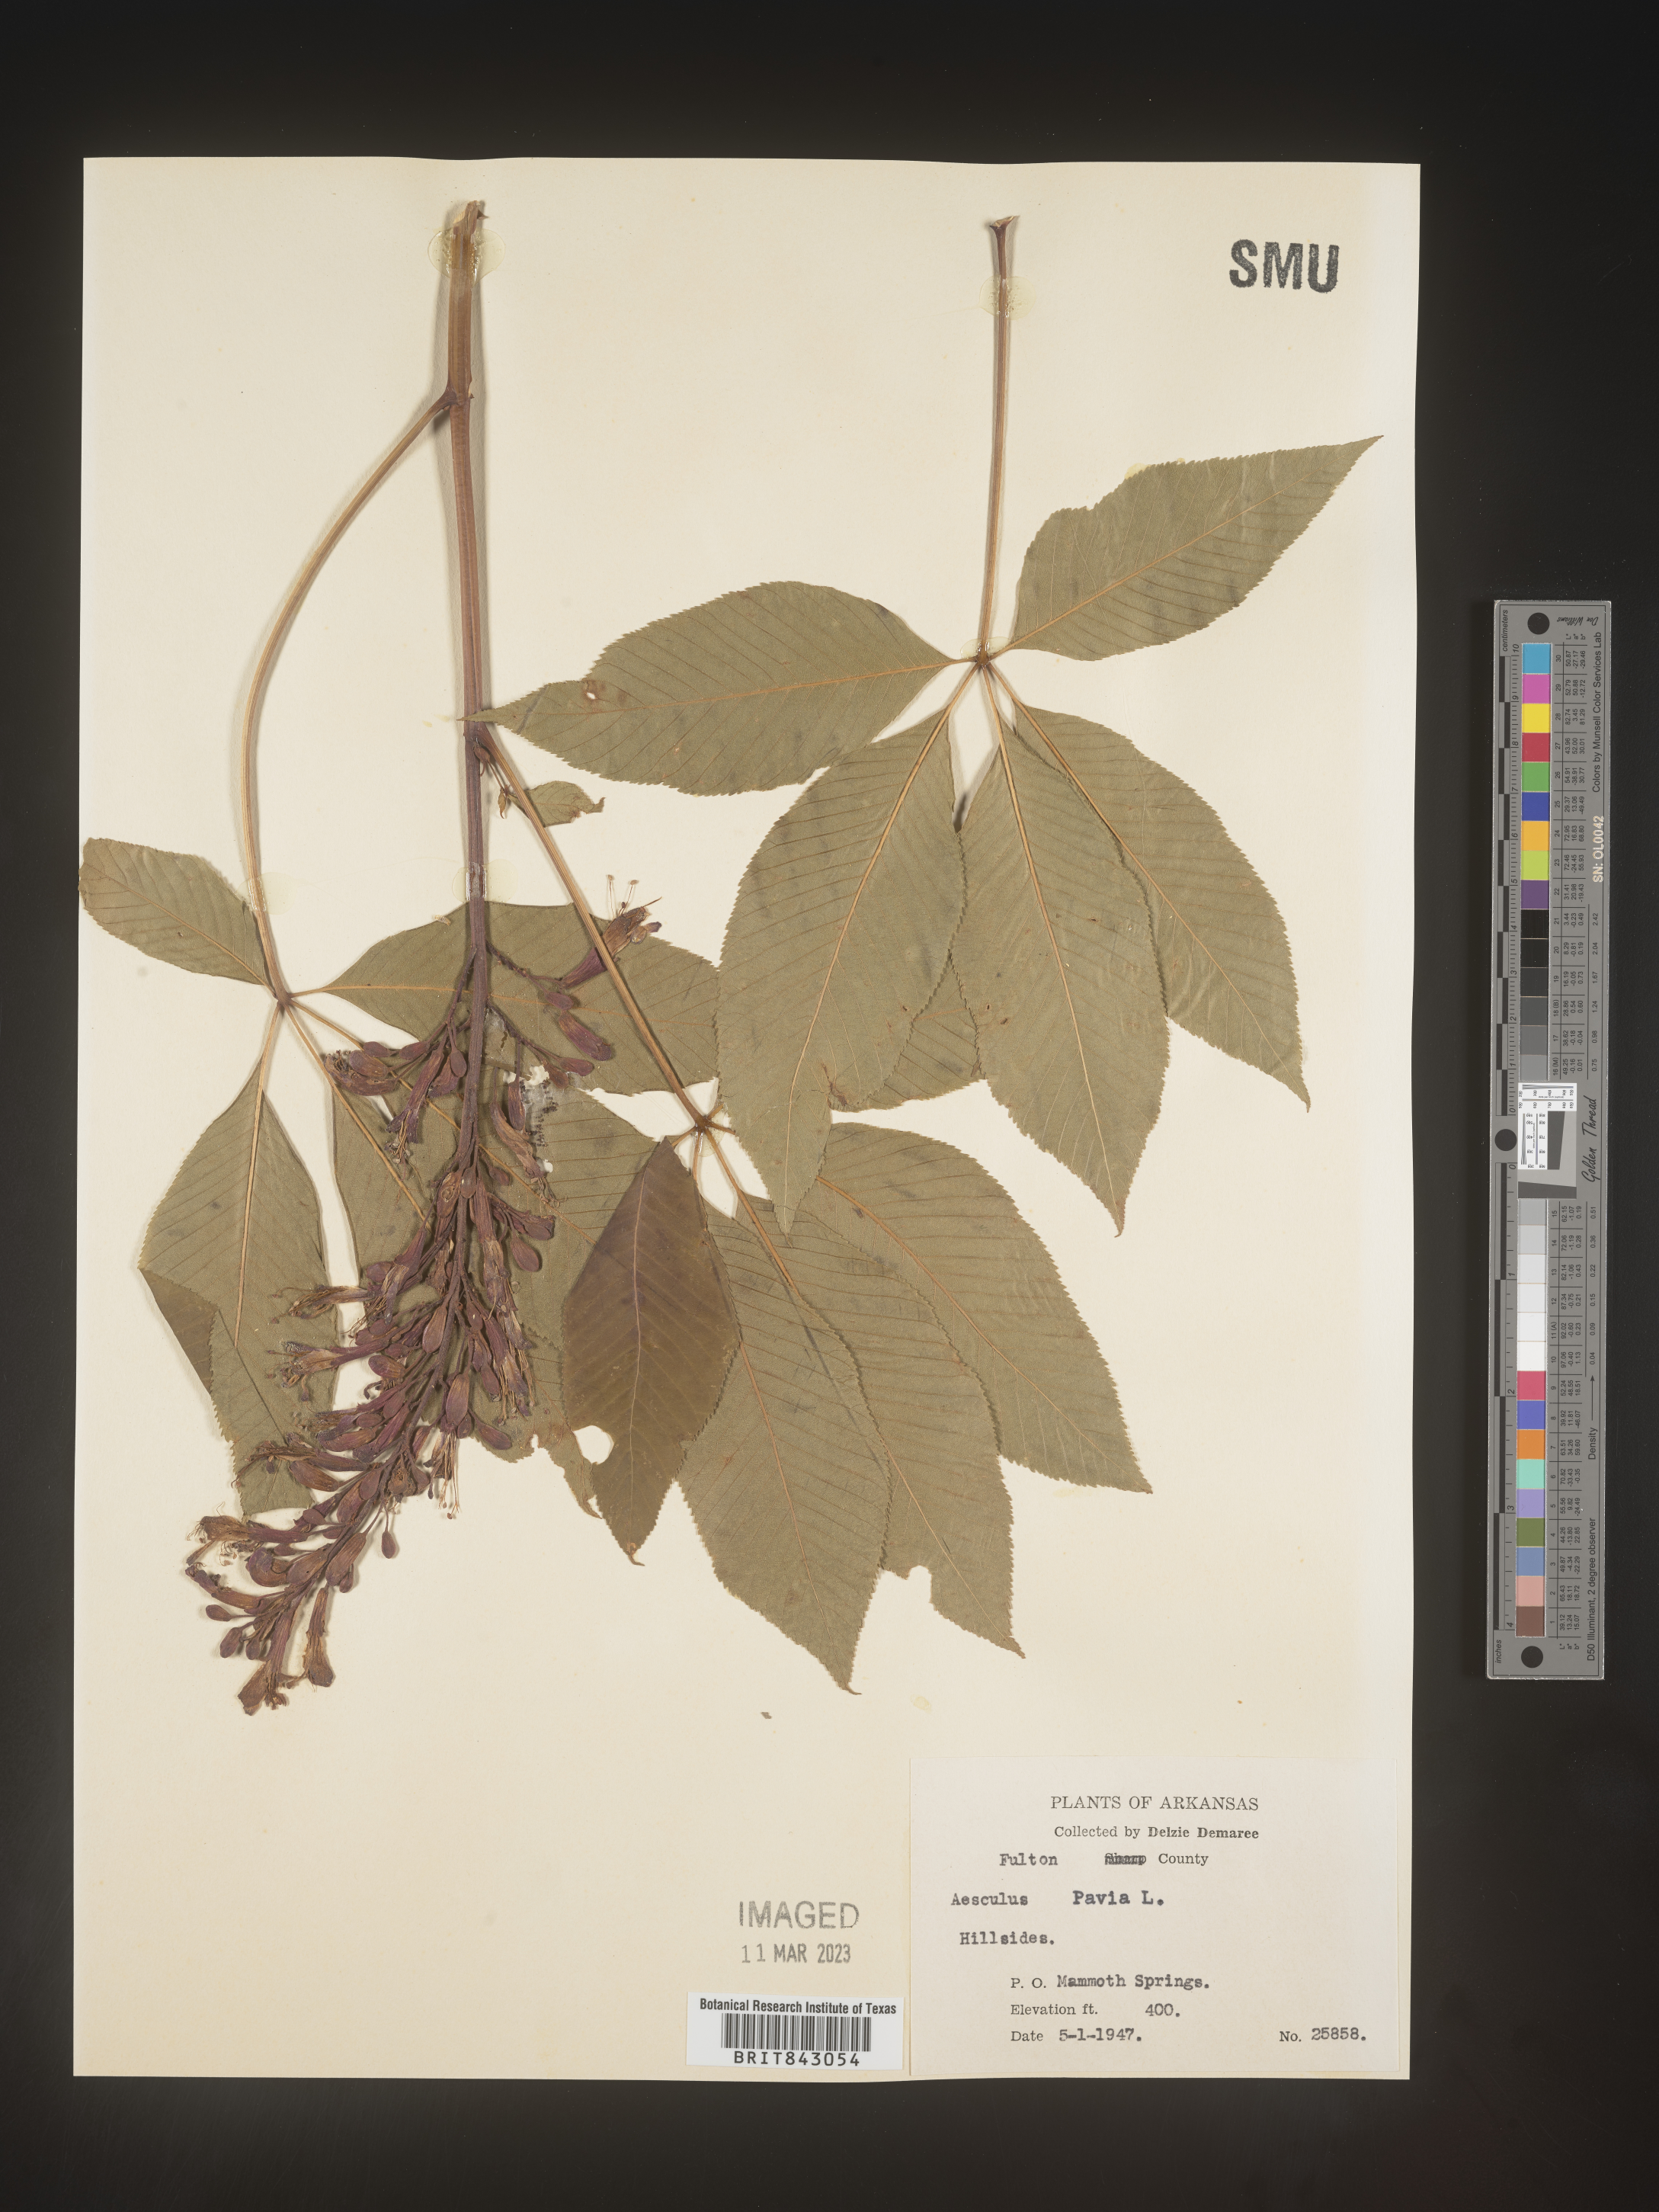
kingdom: Plantae
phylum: Tracheophyta
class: Magnoliopsida
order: Sapindales
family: Sapindaceae
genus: Aesculus
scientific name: Aesculus pavia
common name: Red buckeye
